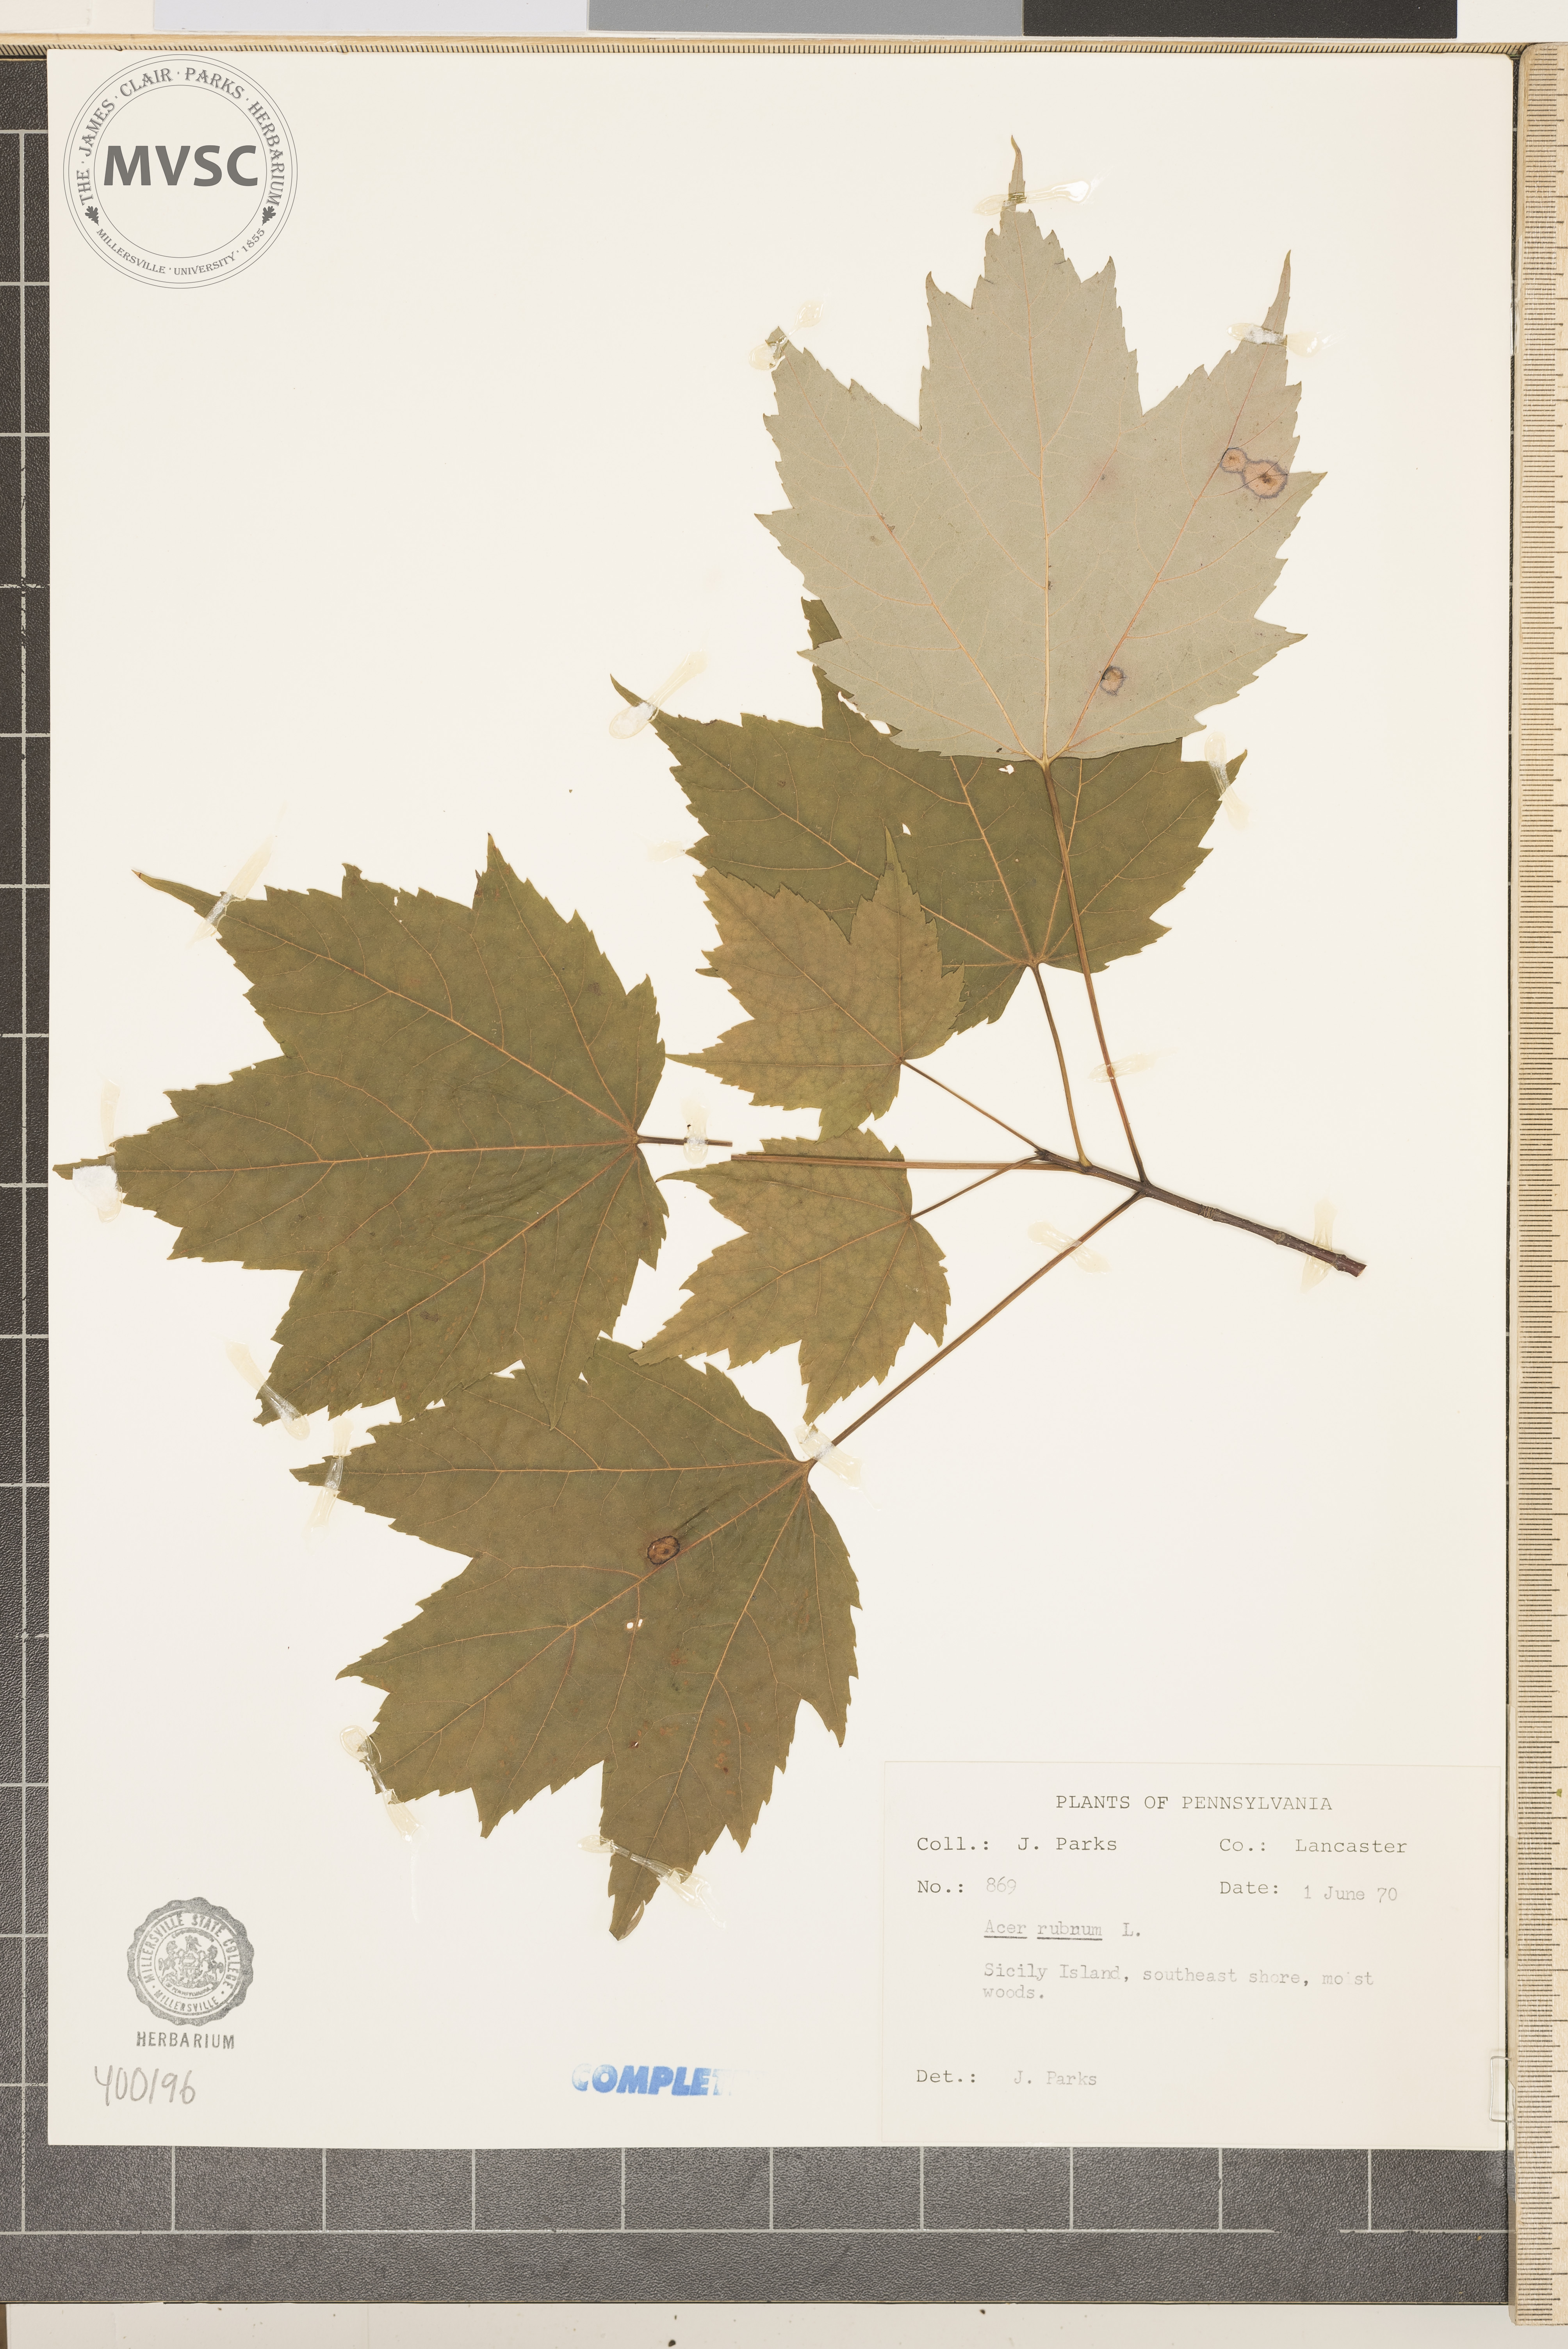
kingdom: Plantae
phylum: Tracheophyta
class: Magnoliopsida
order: Sapindales
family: Sapindaceae
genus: Acer
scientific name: Acer rubrum
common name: red maple
